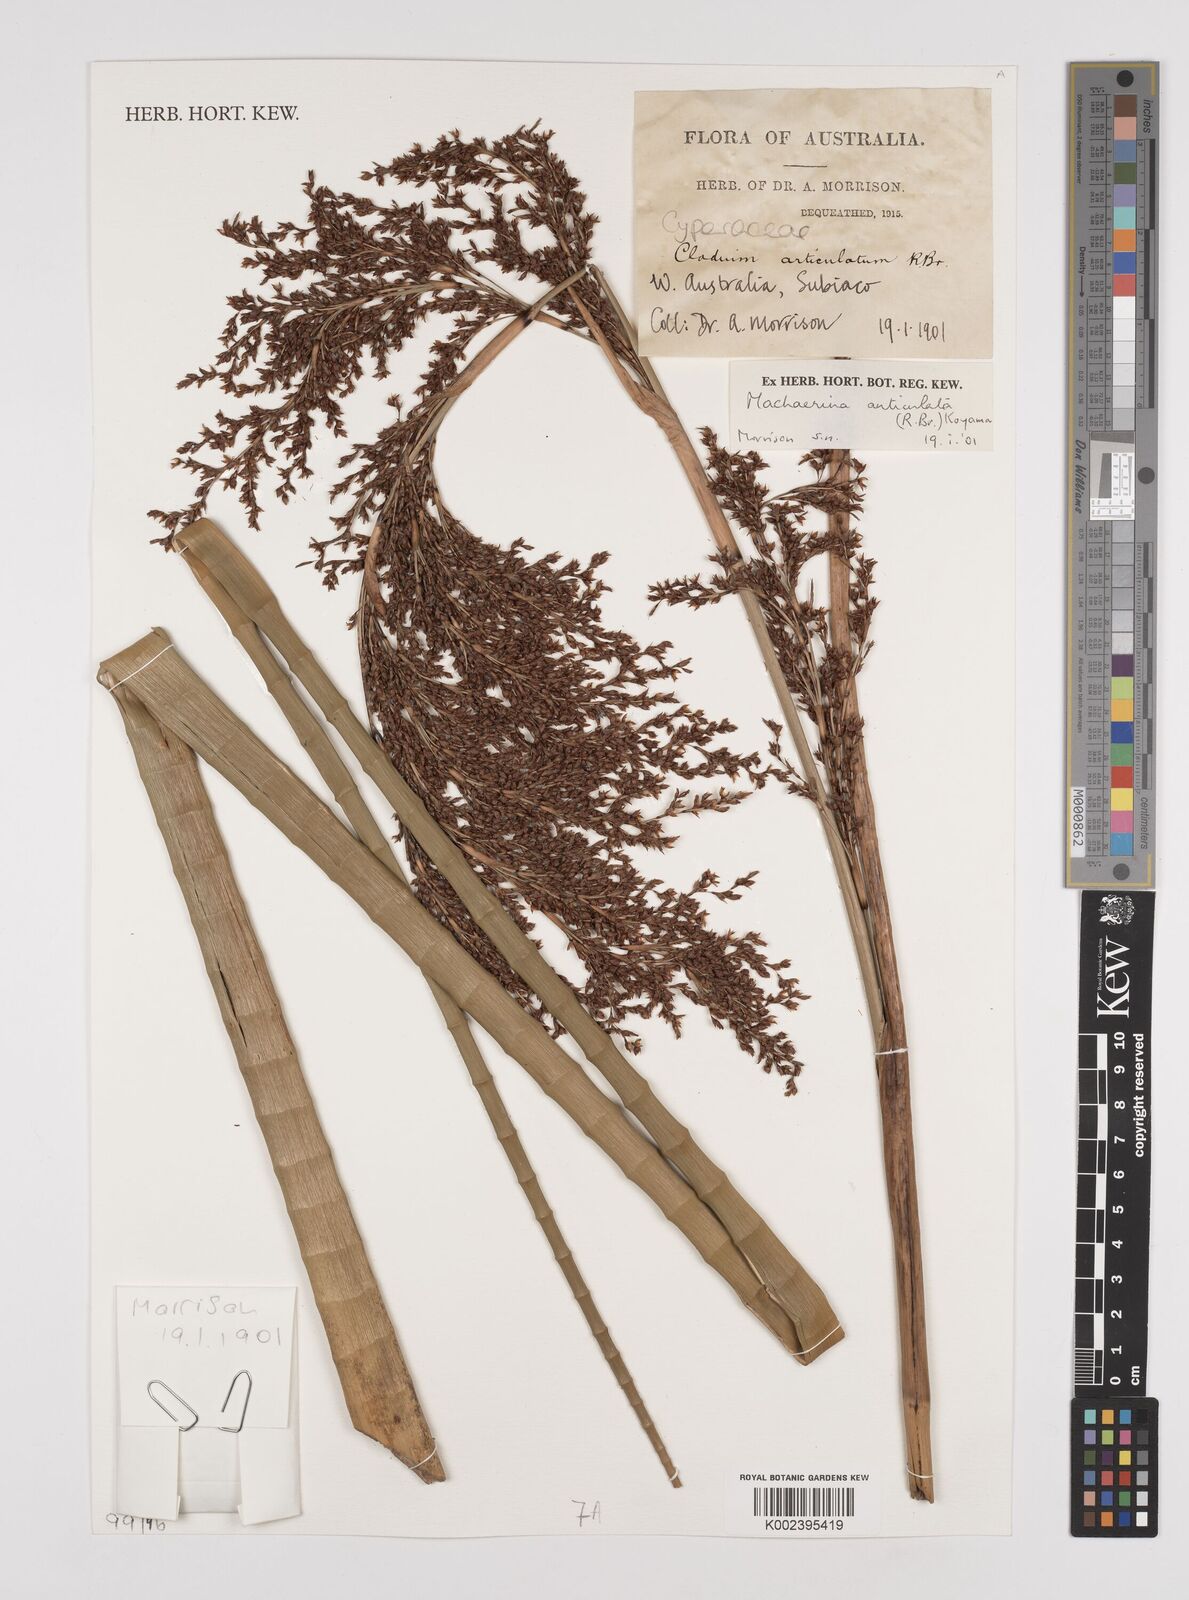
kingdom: Plantae
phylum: Tracheophyta
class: Liliopsida
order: Poales
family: Cyperaceae
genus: Machaerina
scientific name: Machaerina articulata
